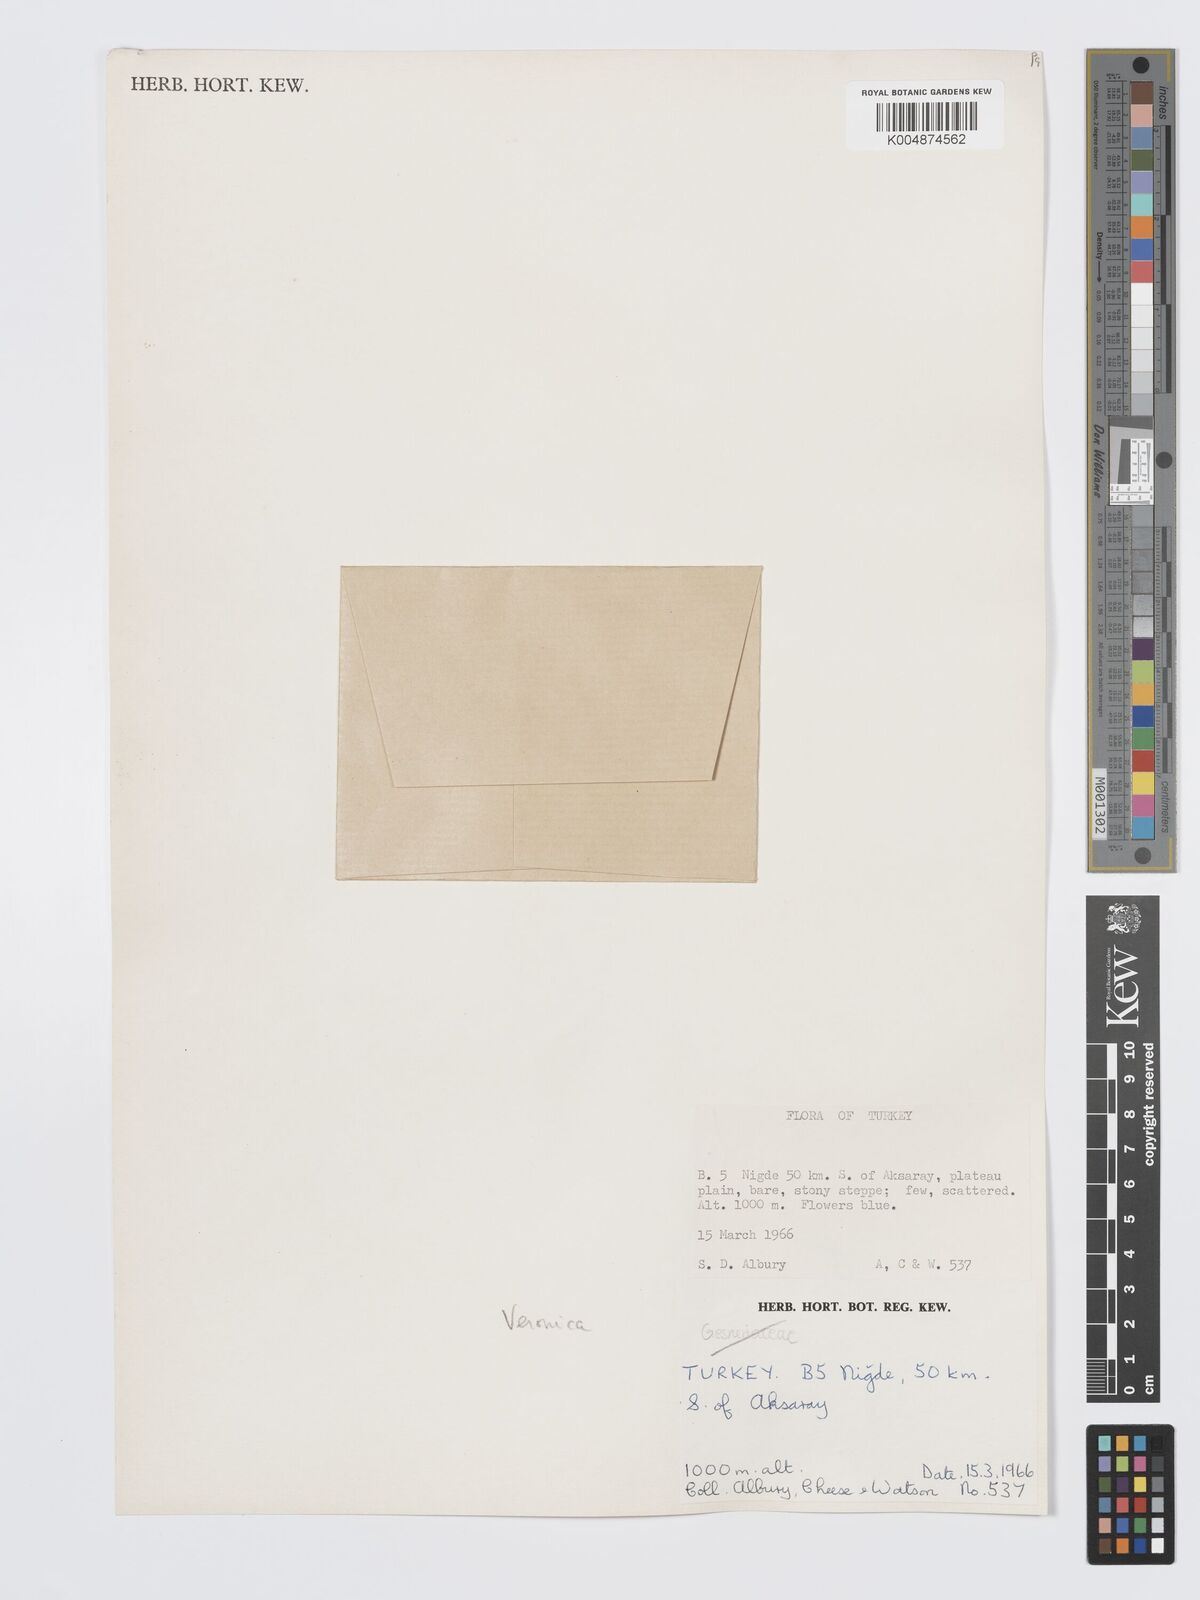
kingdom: Plantae
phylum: Tracheophyta
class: Magnoliopsida
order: Lamiales
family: Plantaginaceae
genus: Veronica
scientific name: Veronica
